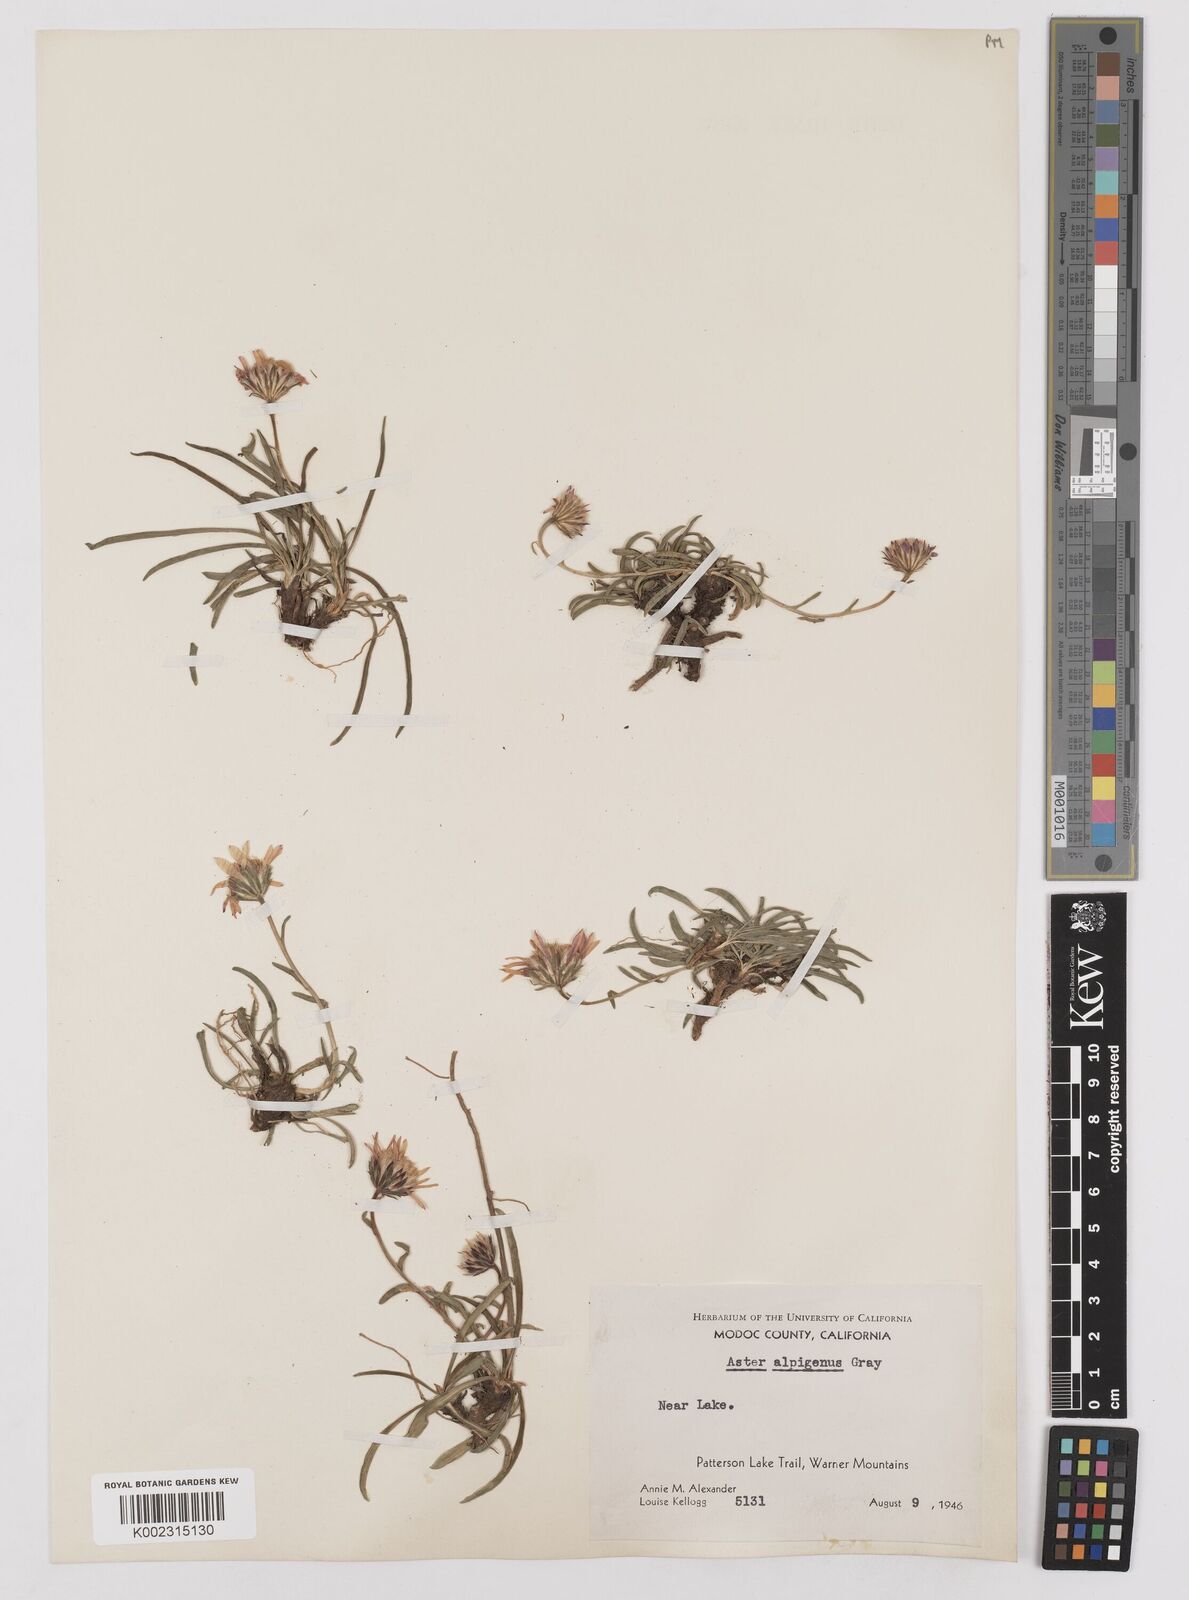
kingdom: Plantae
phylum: Tracheophyta
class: Magnoliopsida
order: Asterales
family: Asteraceae
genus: Oreostemma
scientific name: Oreostemma alpigenum
